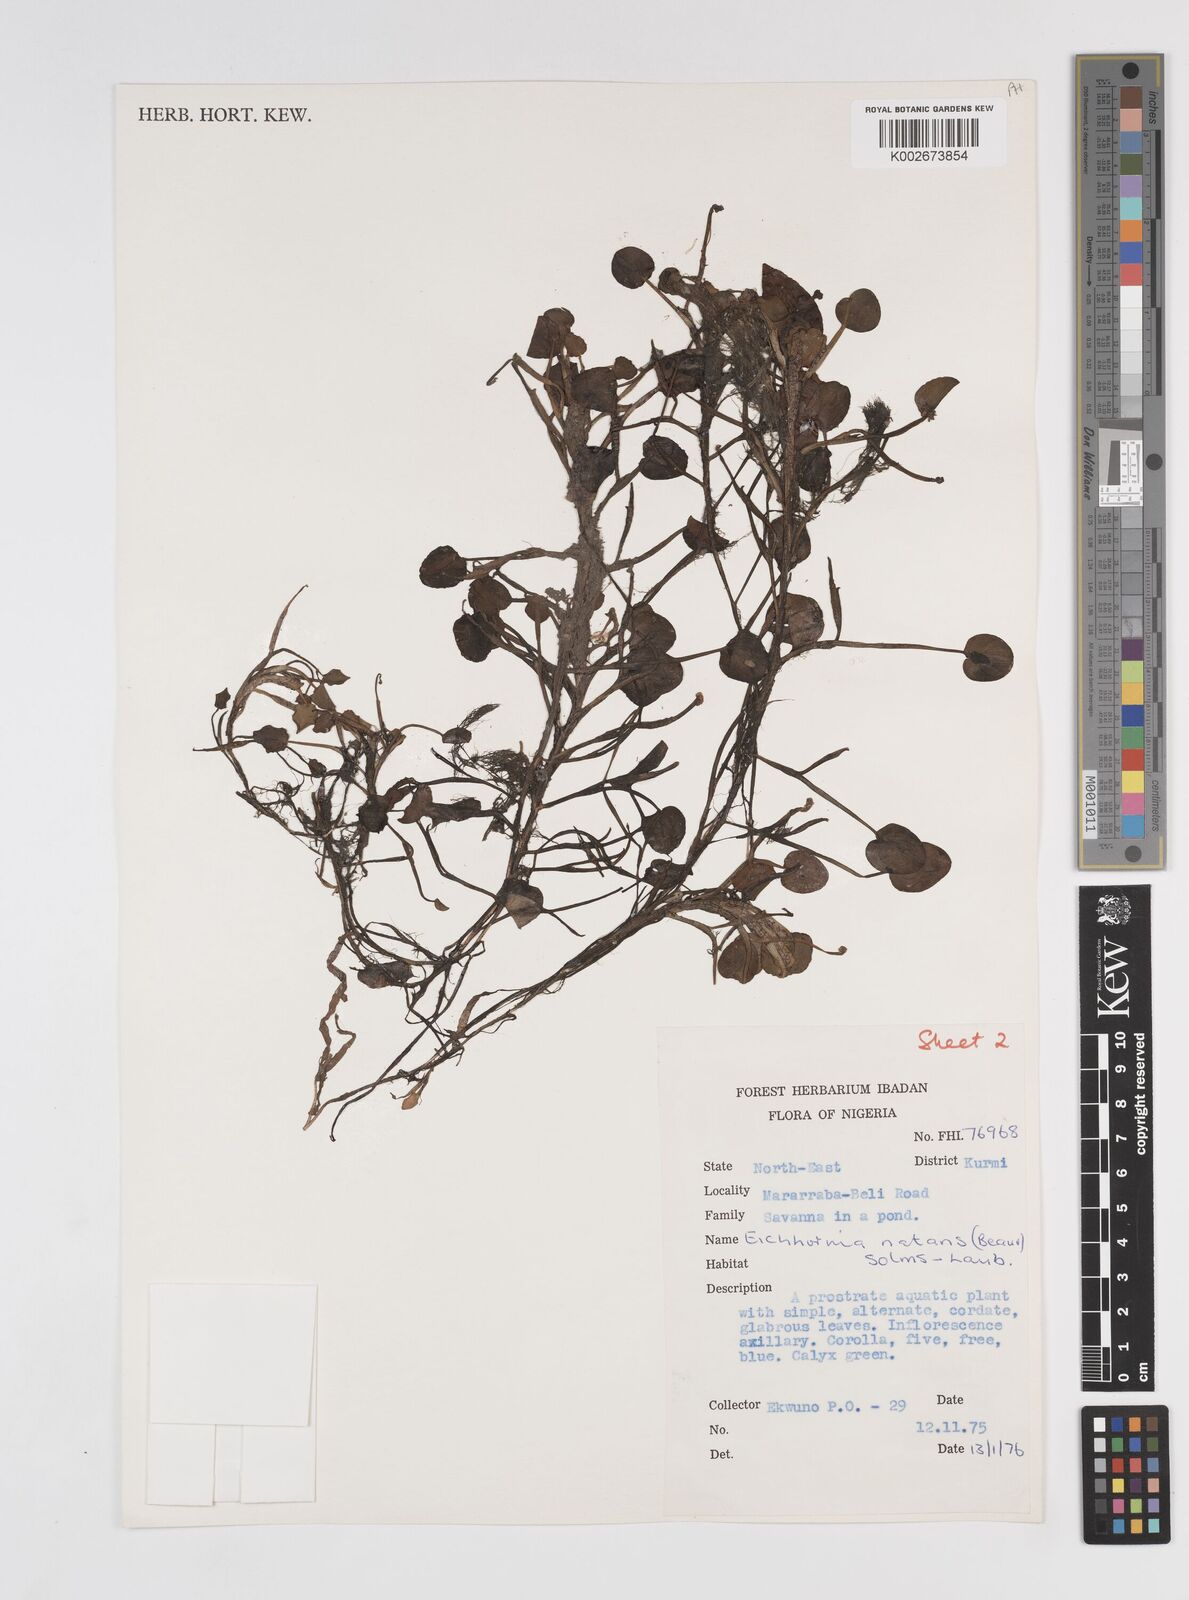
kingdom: Plantae
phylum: Tracheophyta
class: Liliopsida
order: Commelinales
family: Pontederiaceae
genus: Pontederia
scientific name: Pontederia natans
